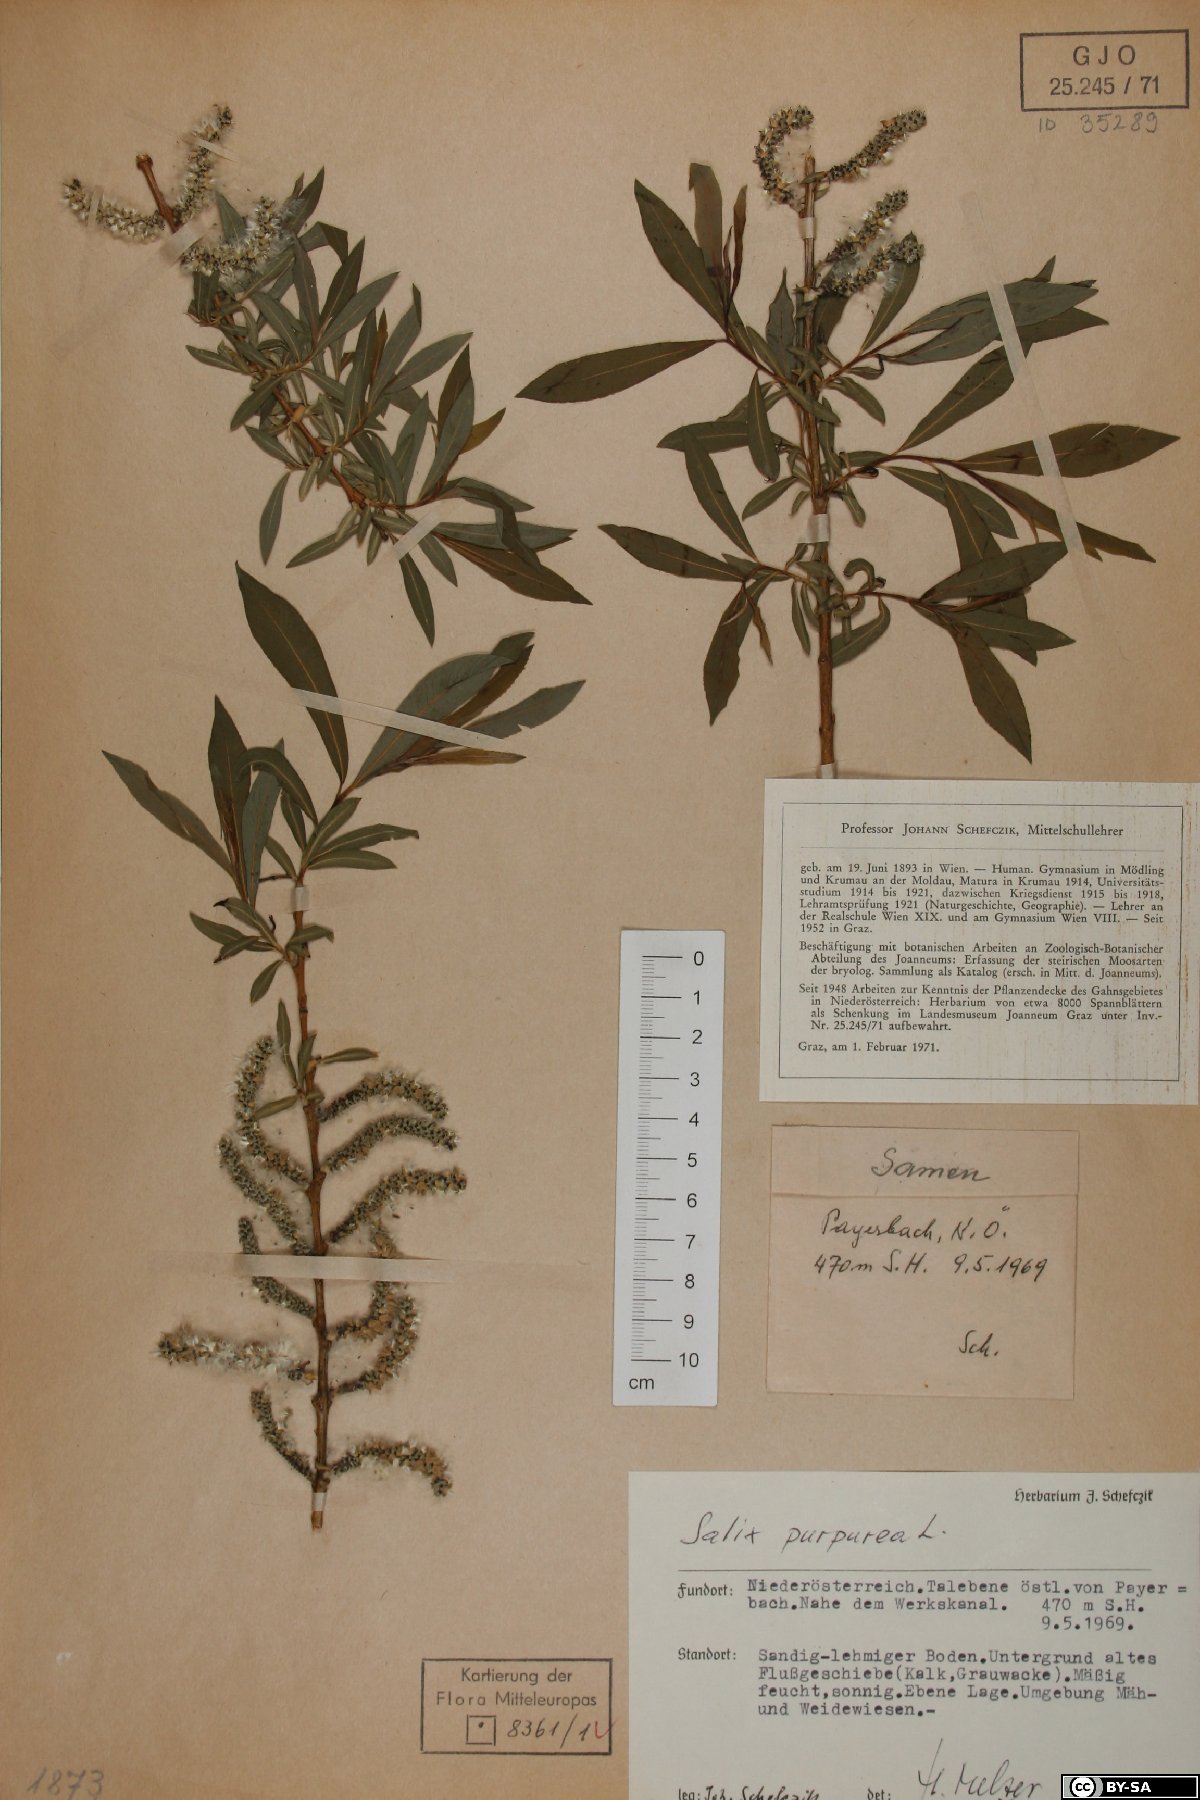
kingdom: Plantae
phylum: Tracheophyta
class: Magnoliopsida
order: Malpighiales
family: Salicaceae
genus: Salix
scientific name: Salix purpurea
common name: Purple willow
